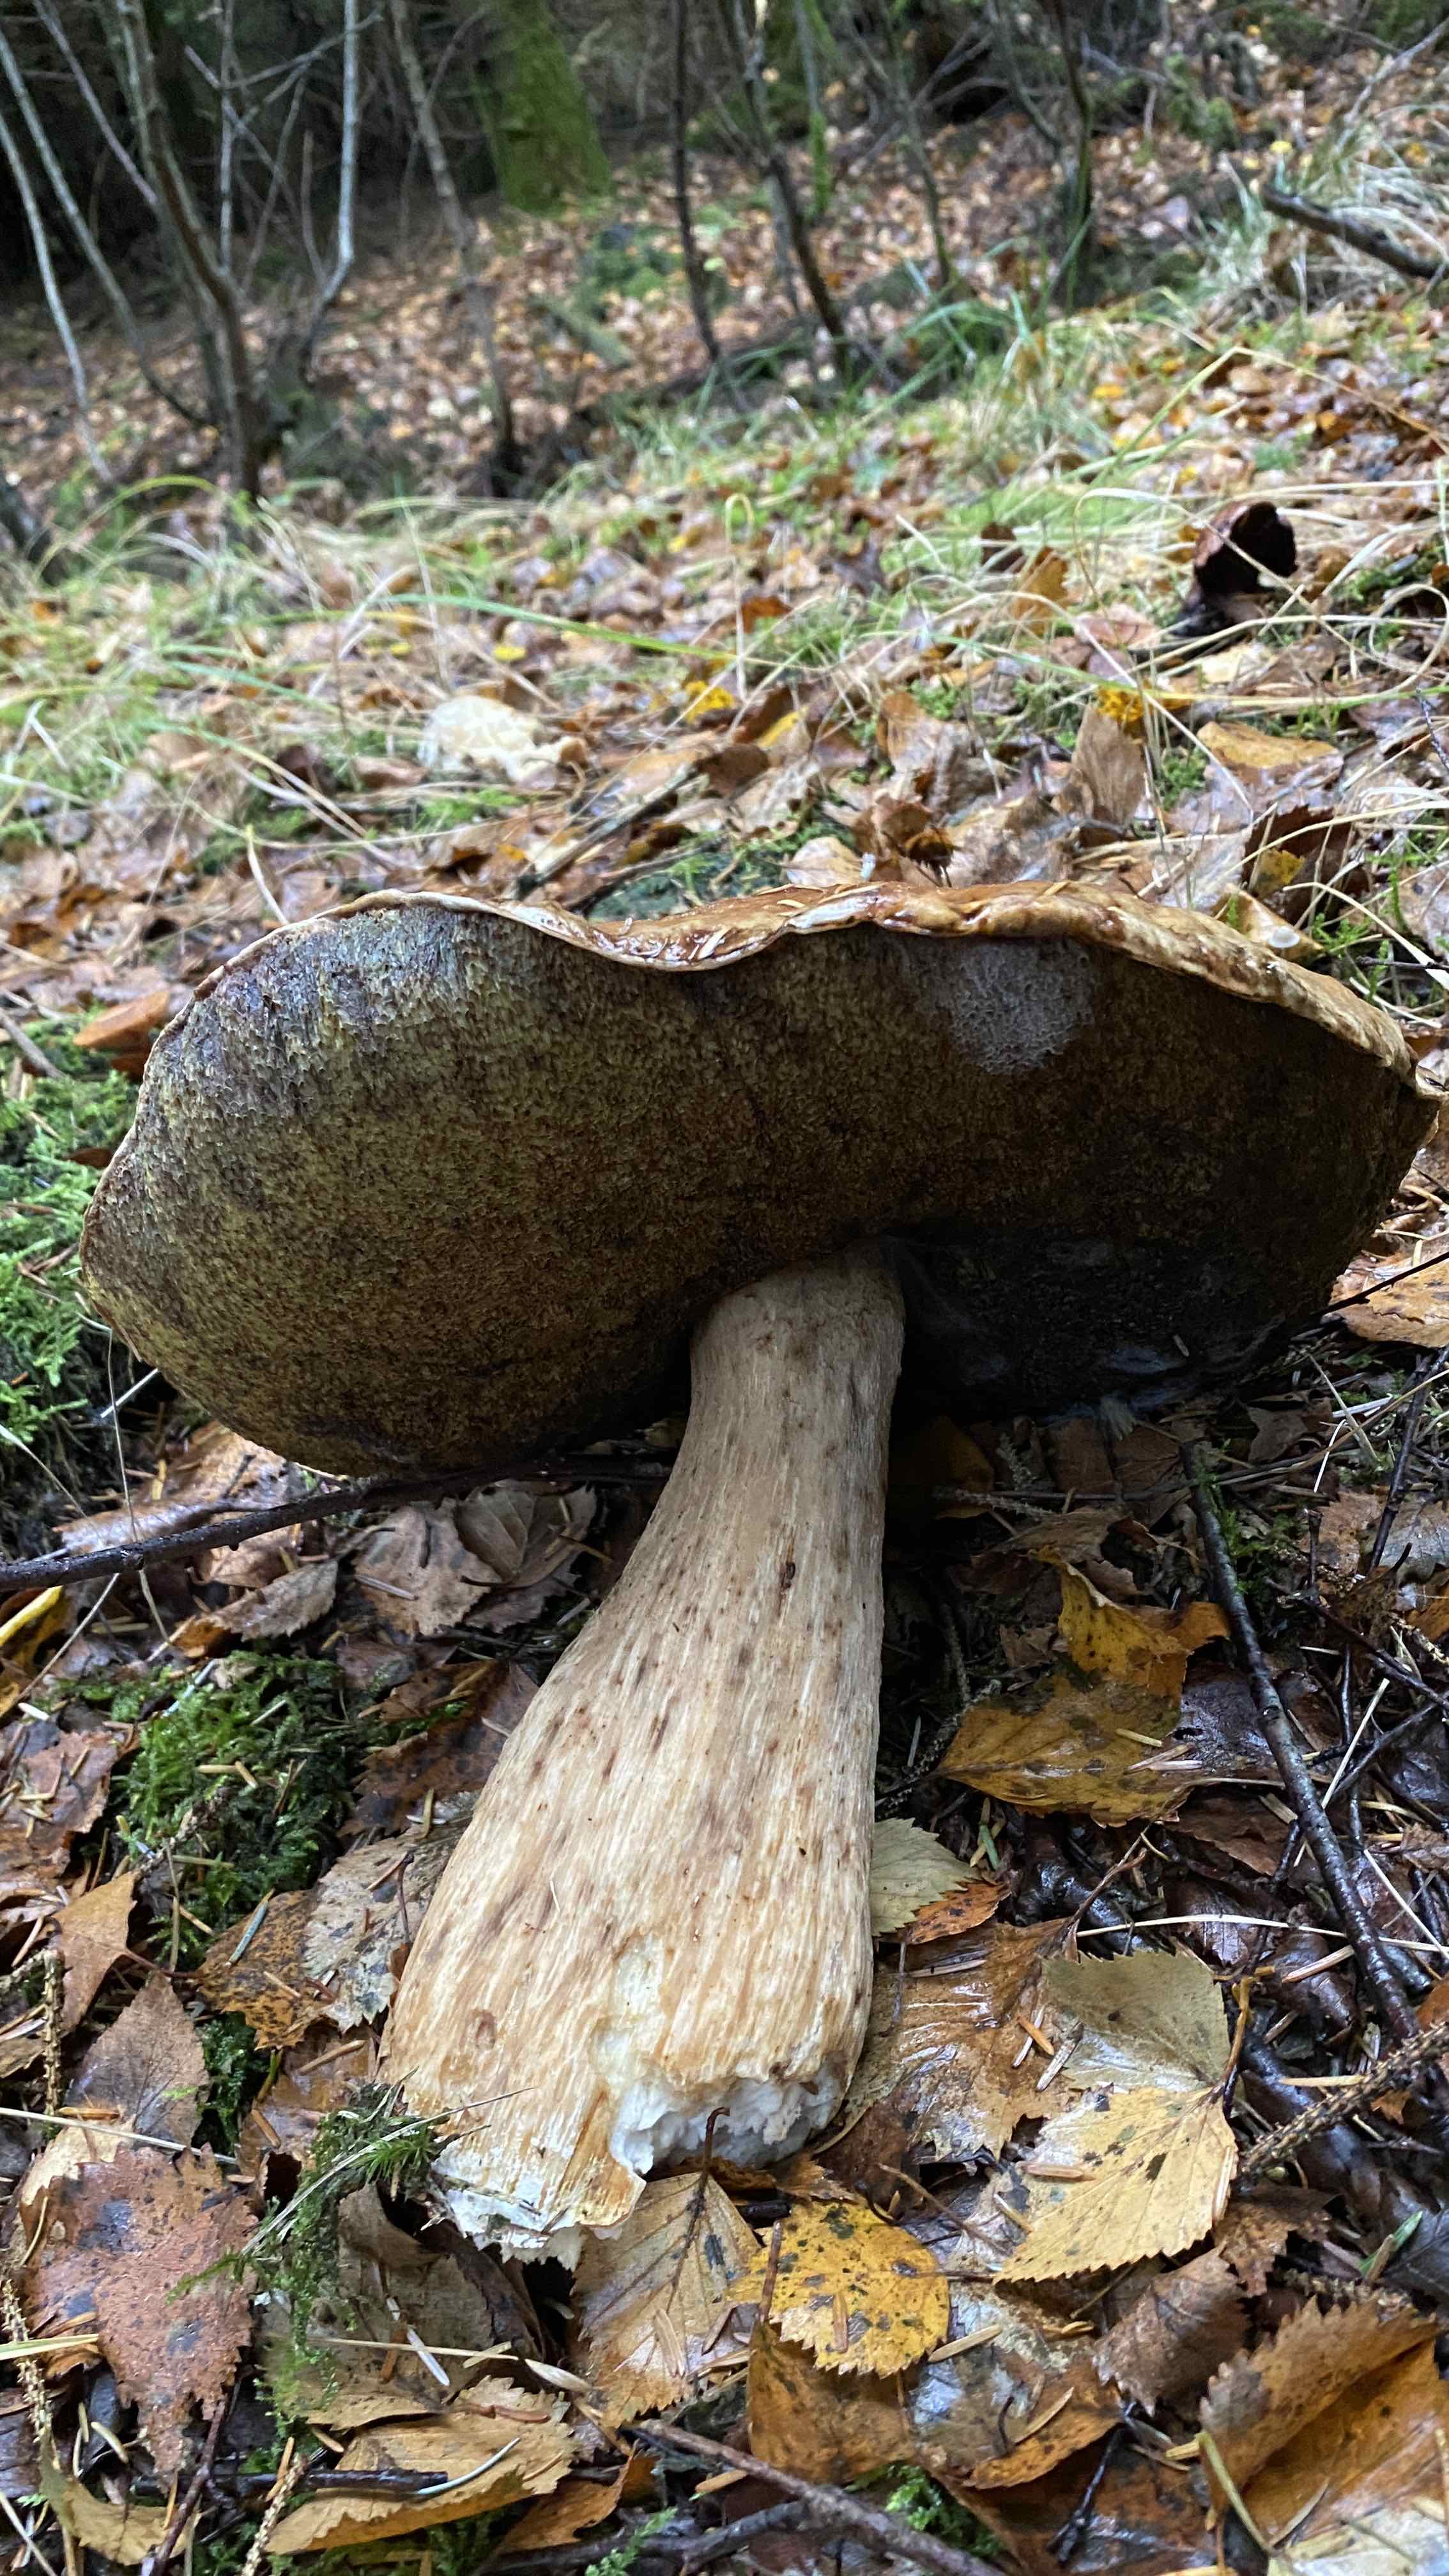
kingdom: Fungi
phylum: Basidiomycota
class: Agaricomycetes
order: Boletales
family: Boletaceae
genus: Boletus
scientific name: Boletus edulis
